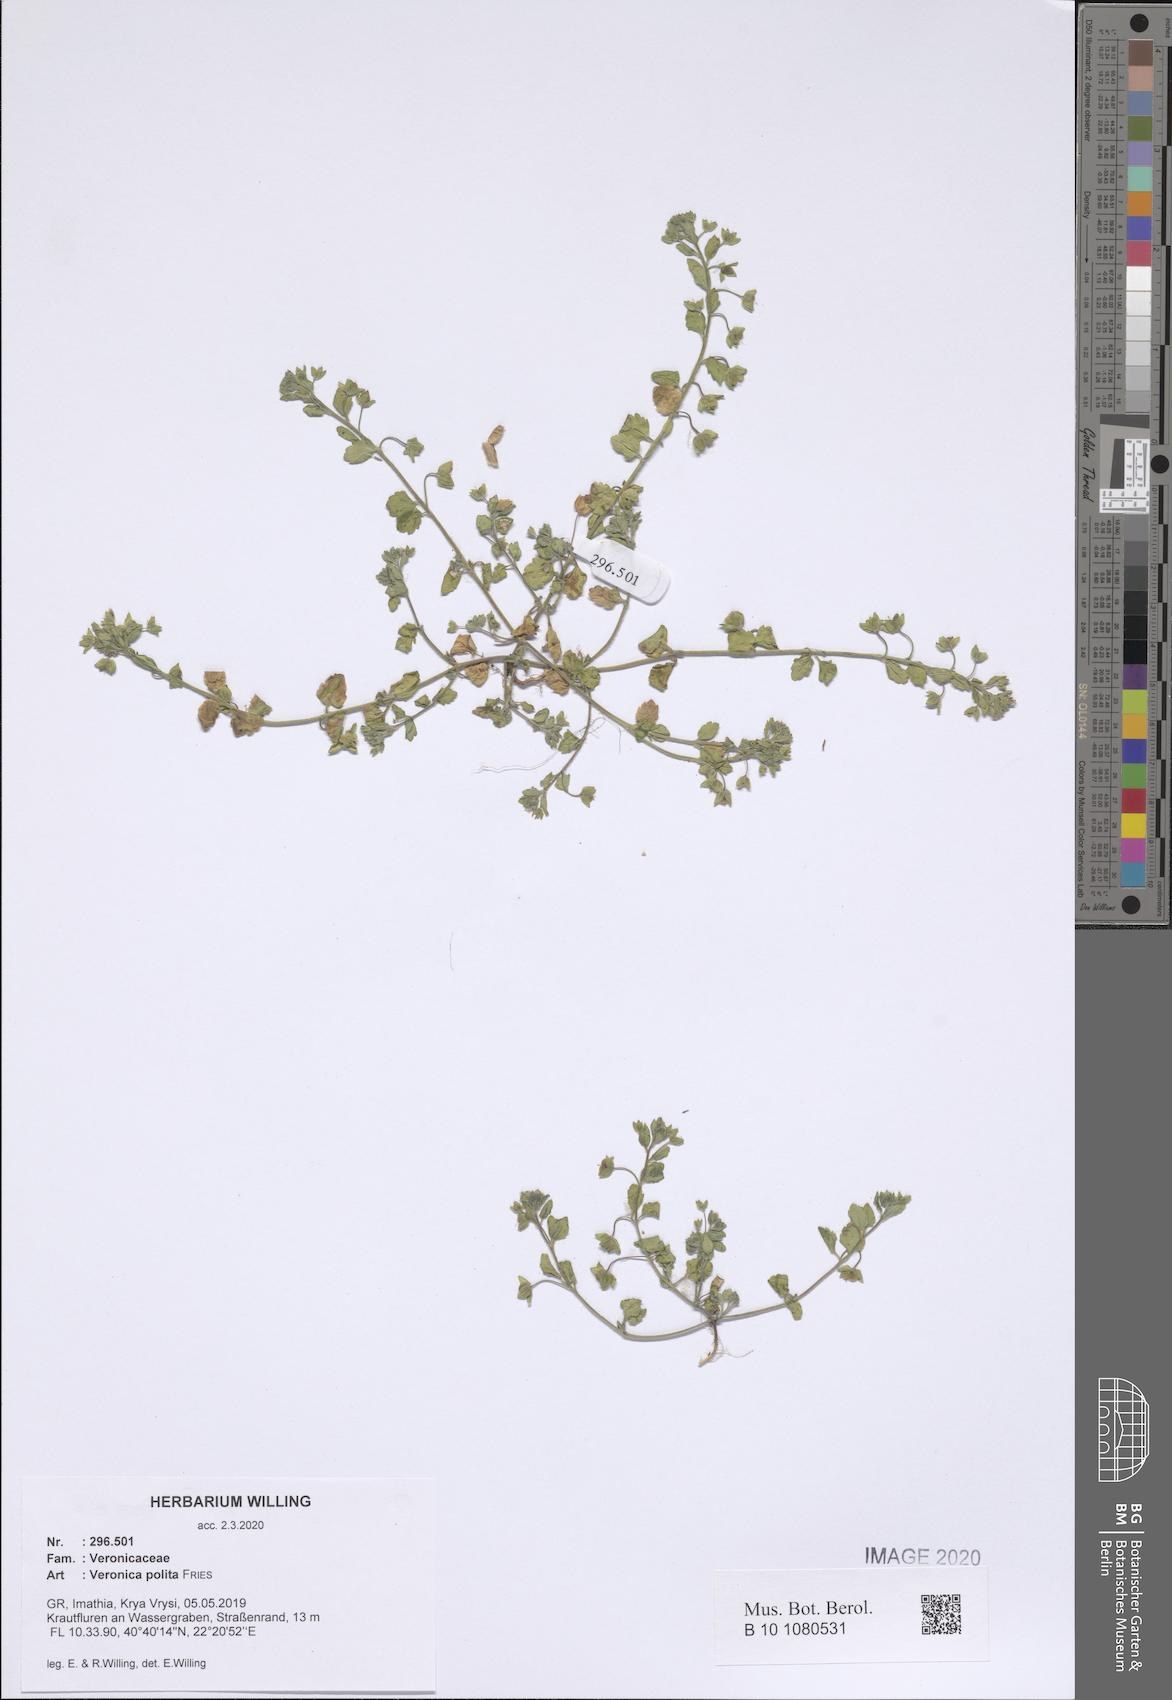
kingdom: Plantae
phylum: Tracheophyta
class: Magnoliopsida
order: Lamiales
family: Plantaginaceae
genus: Veronica
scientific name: Veronica polita
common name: Grey field-speedwell
